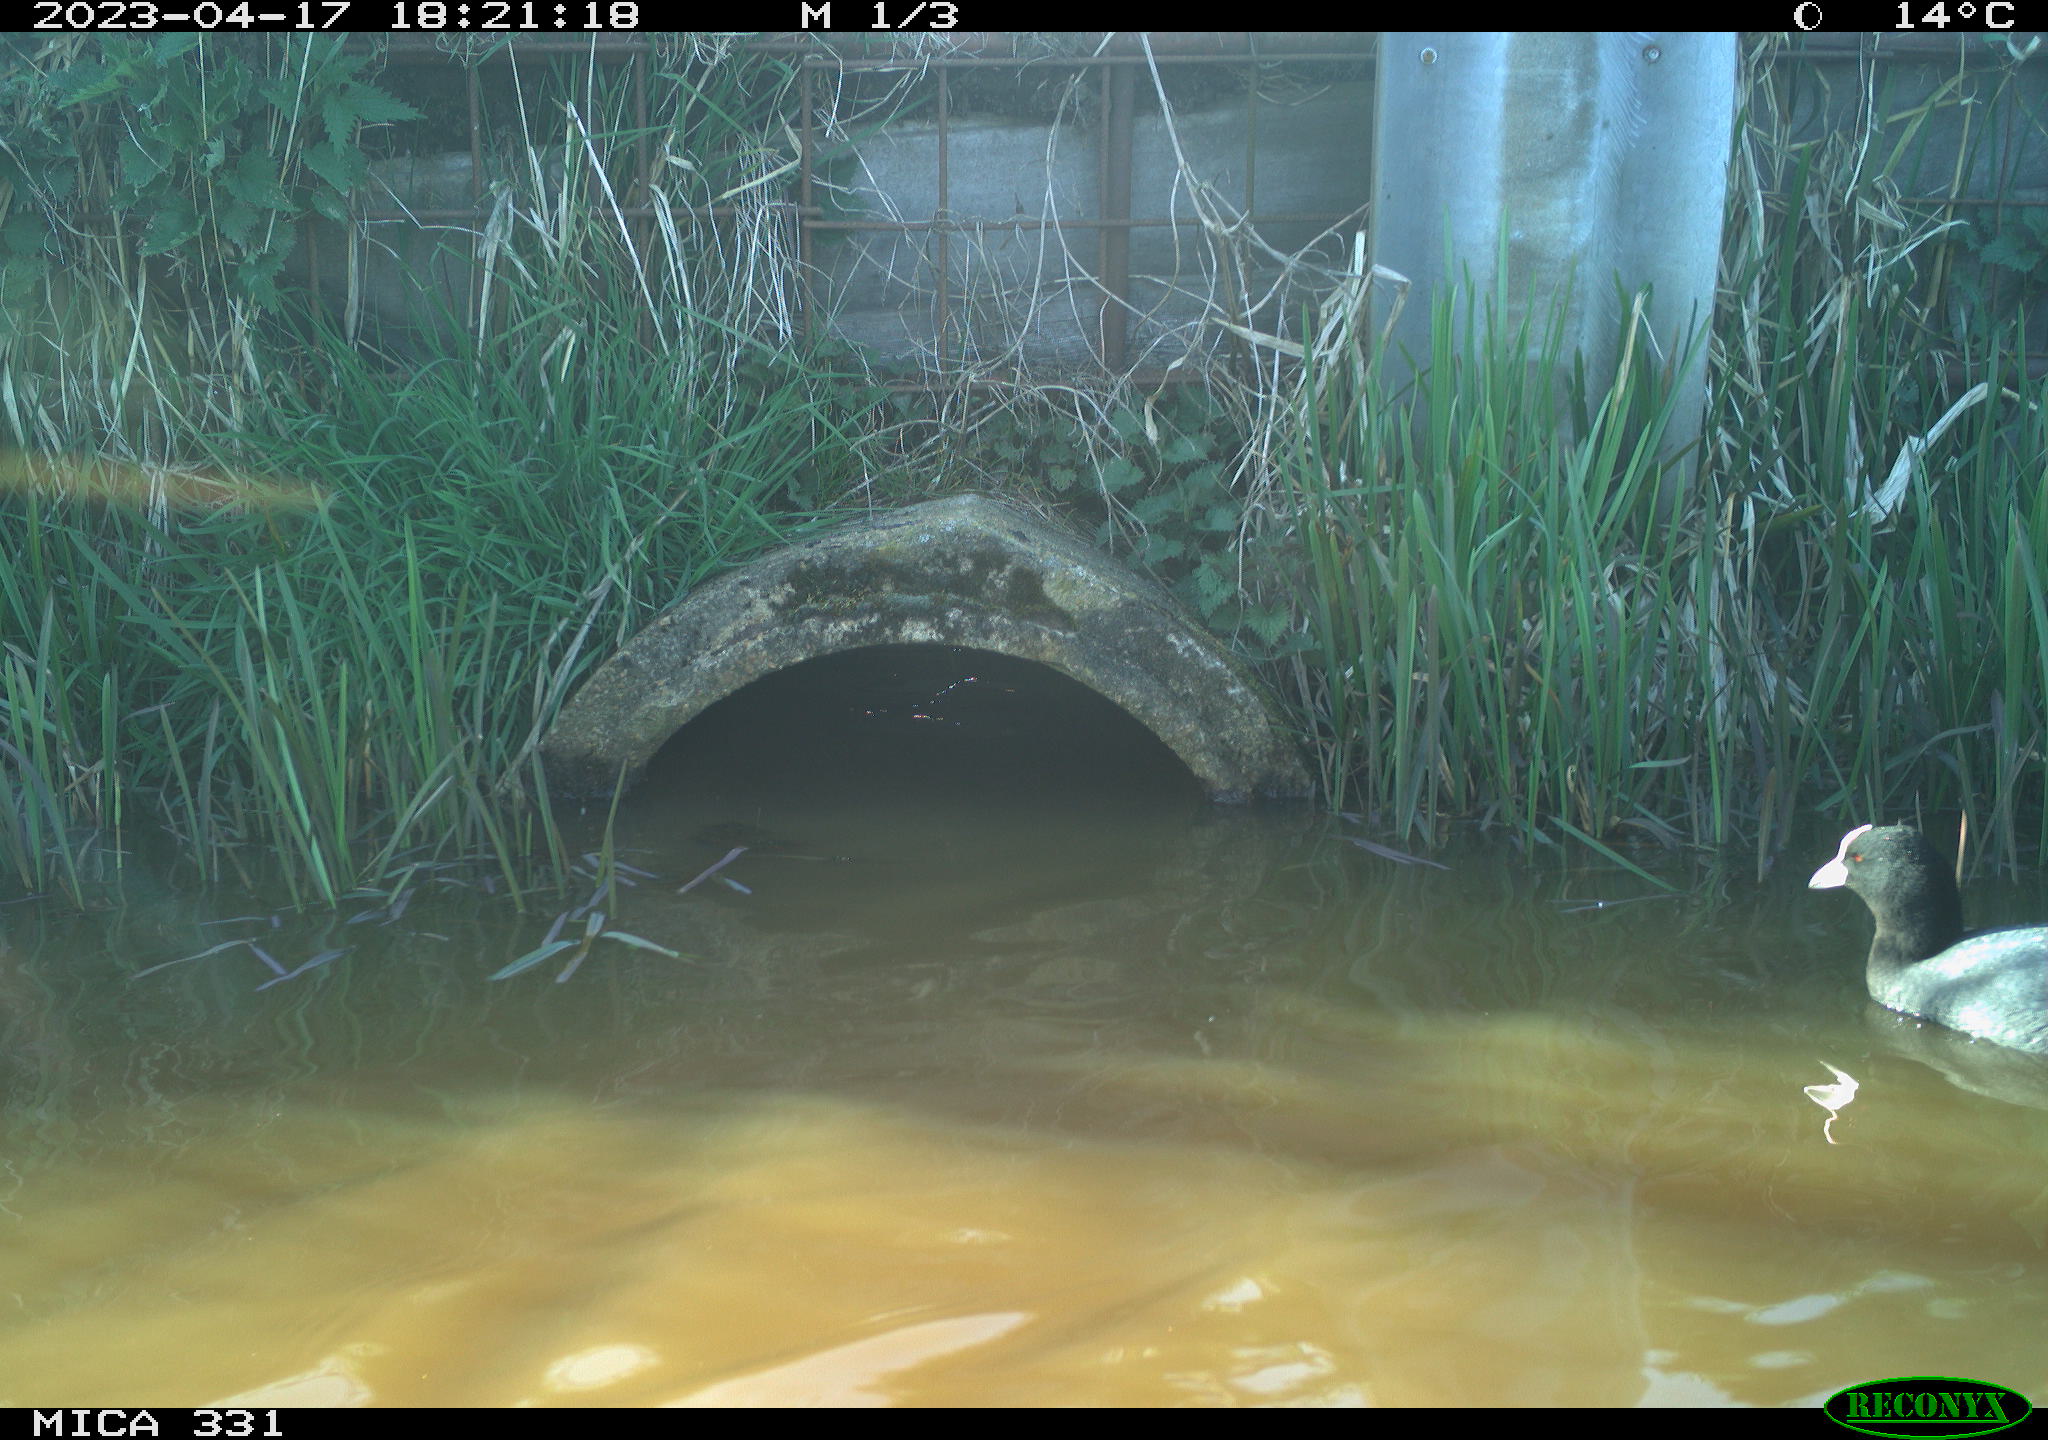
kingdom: Animalia
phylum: Chordata
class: Aves
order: Gruiformes
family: Rallidae
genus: Fulica
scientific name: Fulica atra
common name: Eurasian coot
